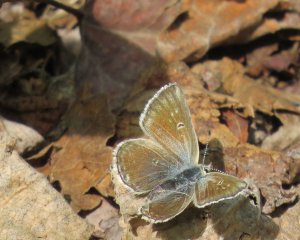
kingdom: Animalia
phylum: Arthropoda
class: Insecta
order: Lepidoptera
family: Lycaenidae
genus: Agriades
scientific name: Agriades glandon
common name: Arctic Blue
